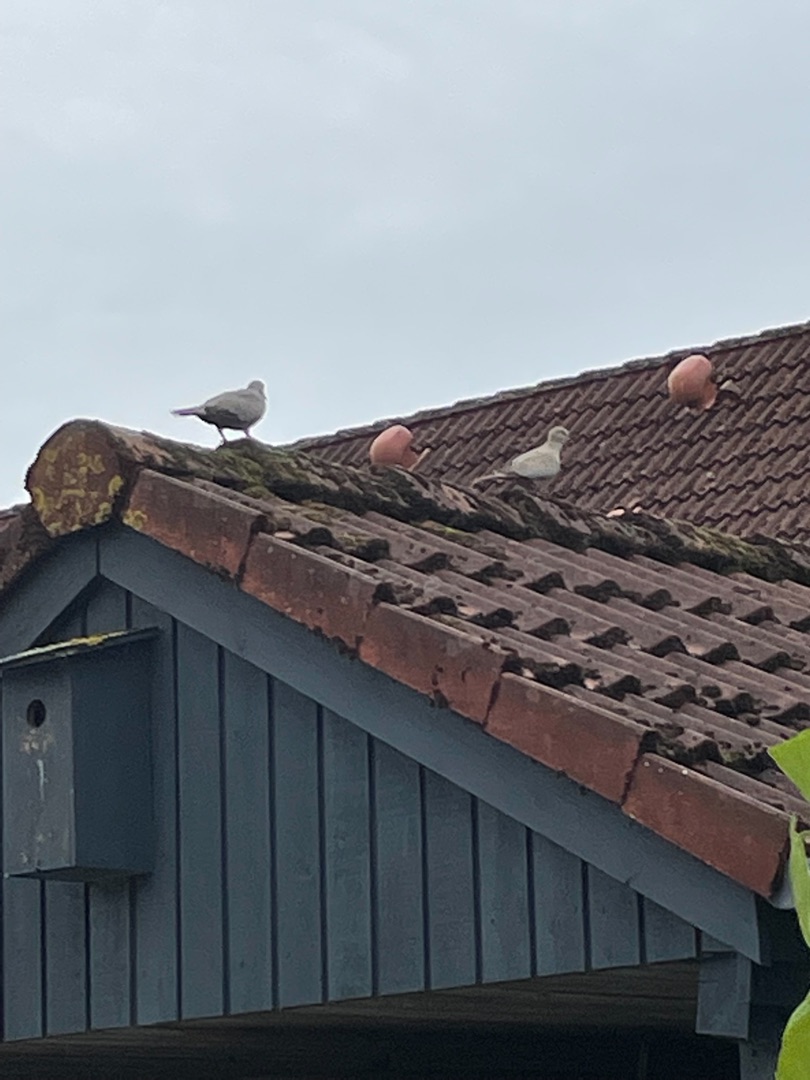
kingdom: Animalia
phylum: Chordata
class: Aves
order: Columbiformes
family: Columbidae
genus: Streptopelia
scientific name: Streptopelia decaocto
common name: Tyrkerdue
